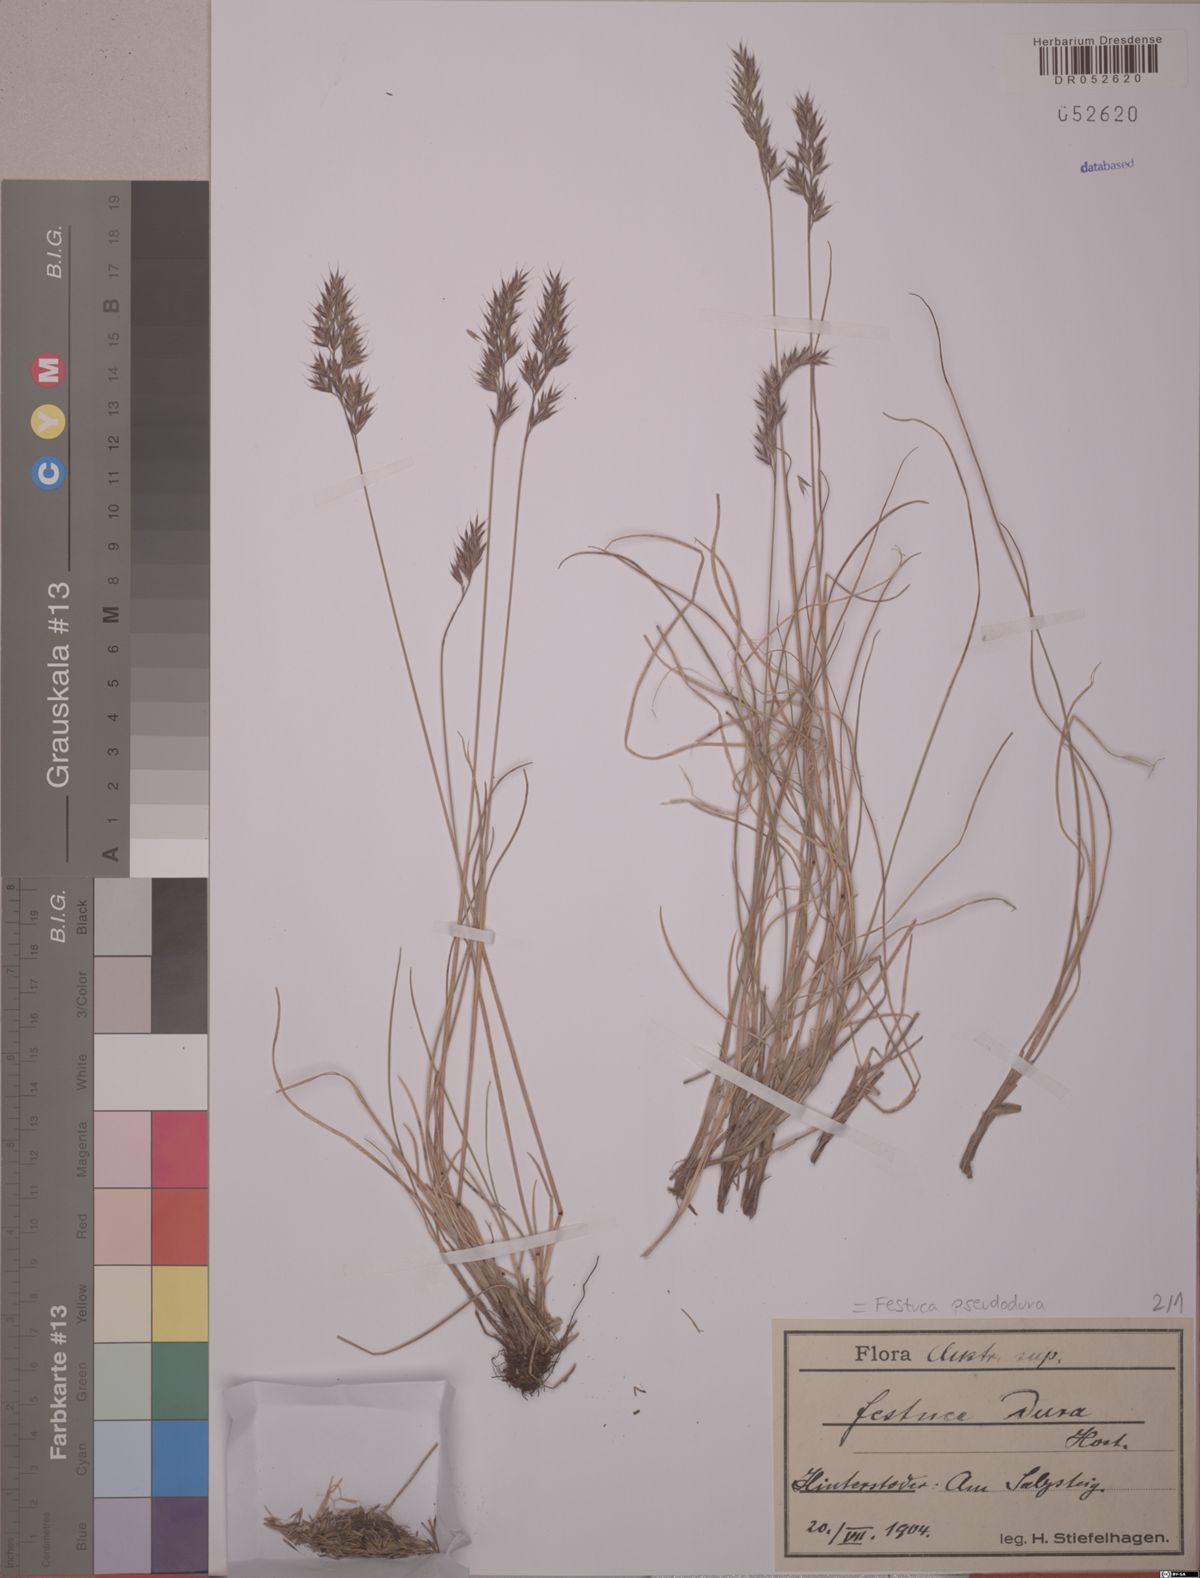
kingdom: Plantae
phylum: Tracheophyta
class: Liliopsida
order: Poales
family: Poaceae
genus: Festuca
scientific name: Festuca pseudodura
